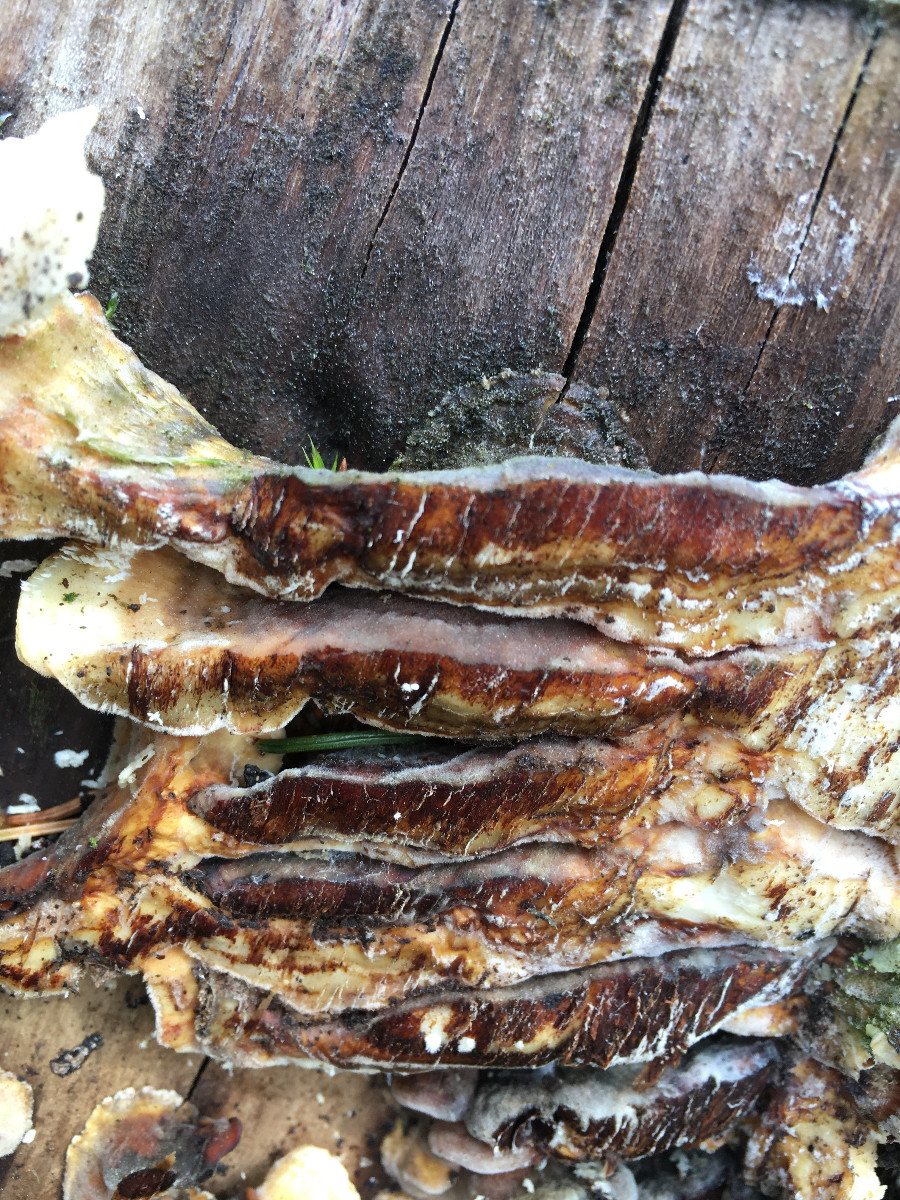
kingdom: Fungi
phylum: Basidiomycota
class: Agaricomycetes
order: Polyporales
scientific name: Polyporales
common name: poresvampordenen
